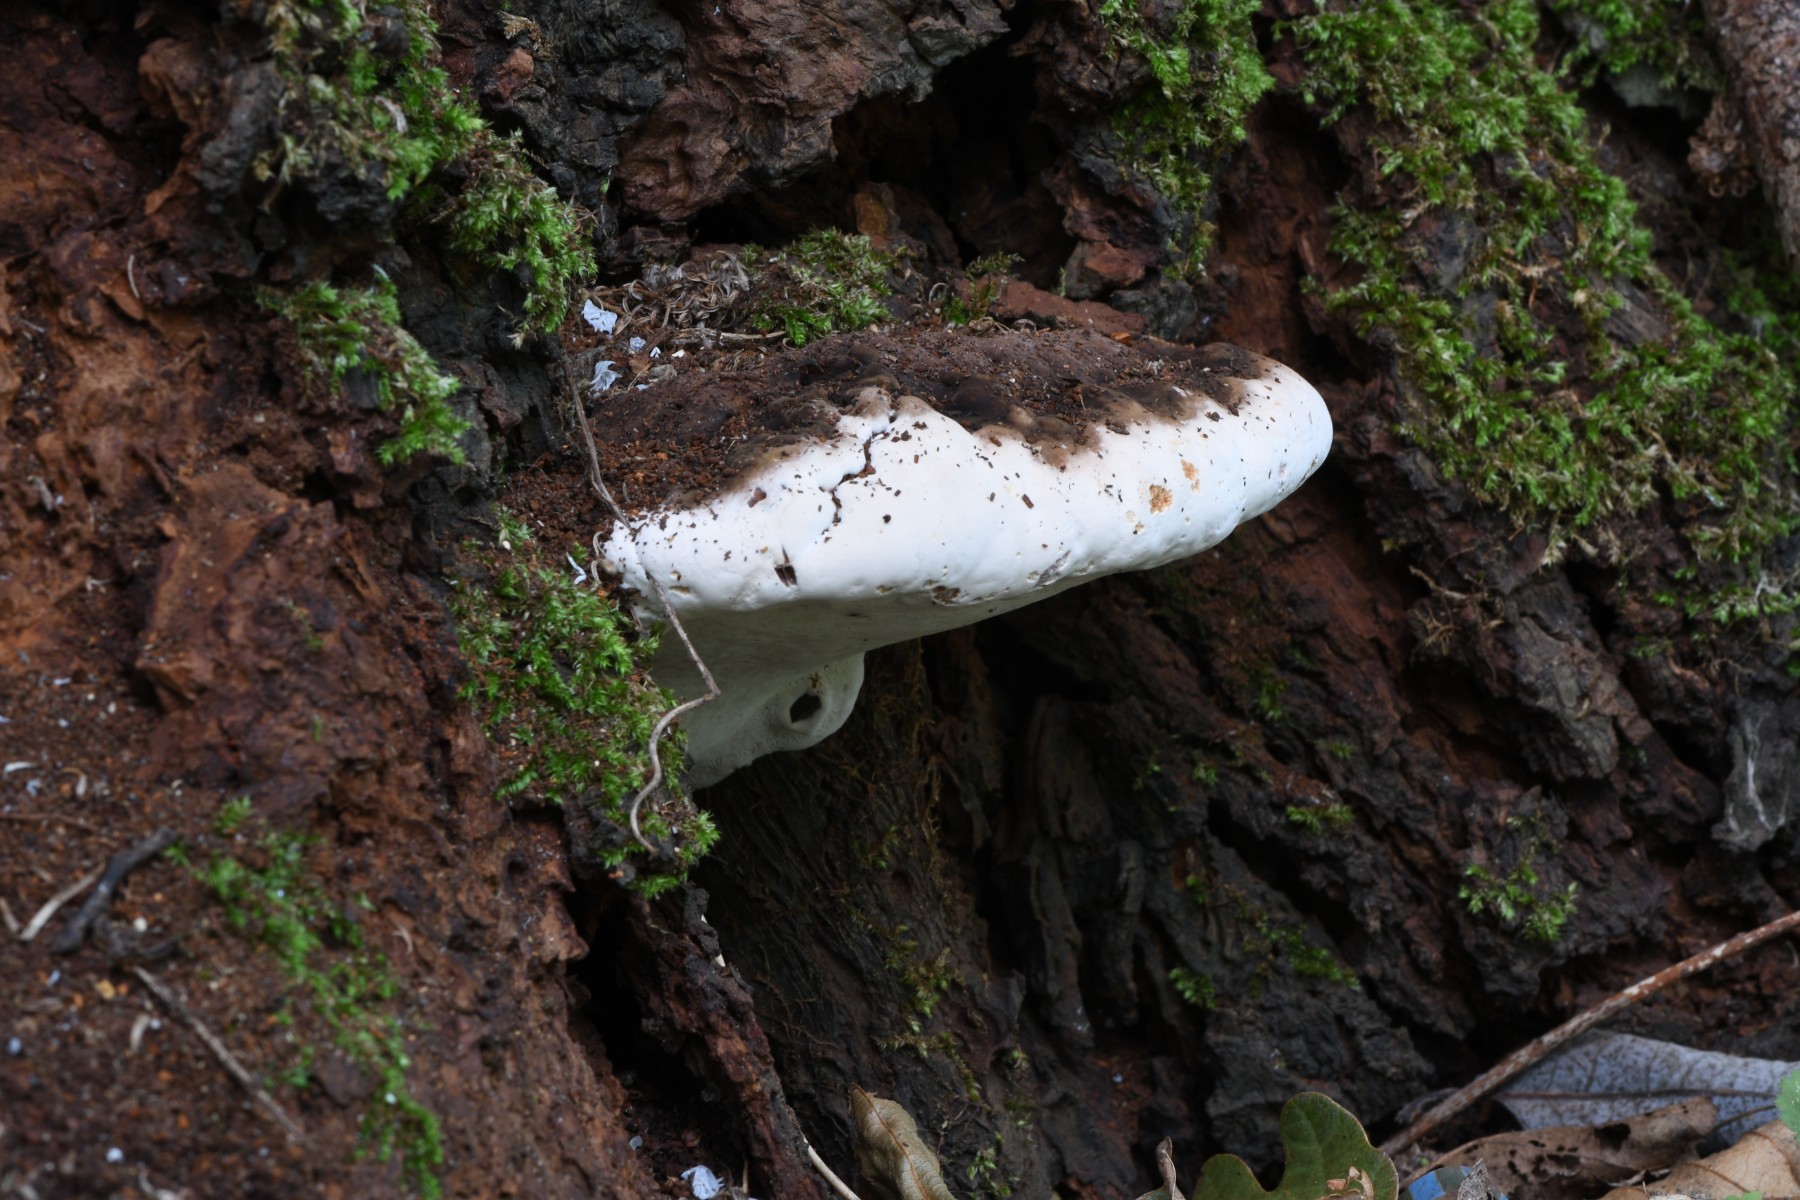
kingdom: Fungi
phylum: Basidiomycota
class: Agaricomycetes
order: Hymenochaetales
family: Hymenochaetaceae
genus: Phellinus
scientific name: Phellinus igniarius
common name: almindelig ildporesvamp
